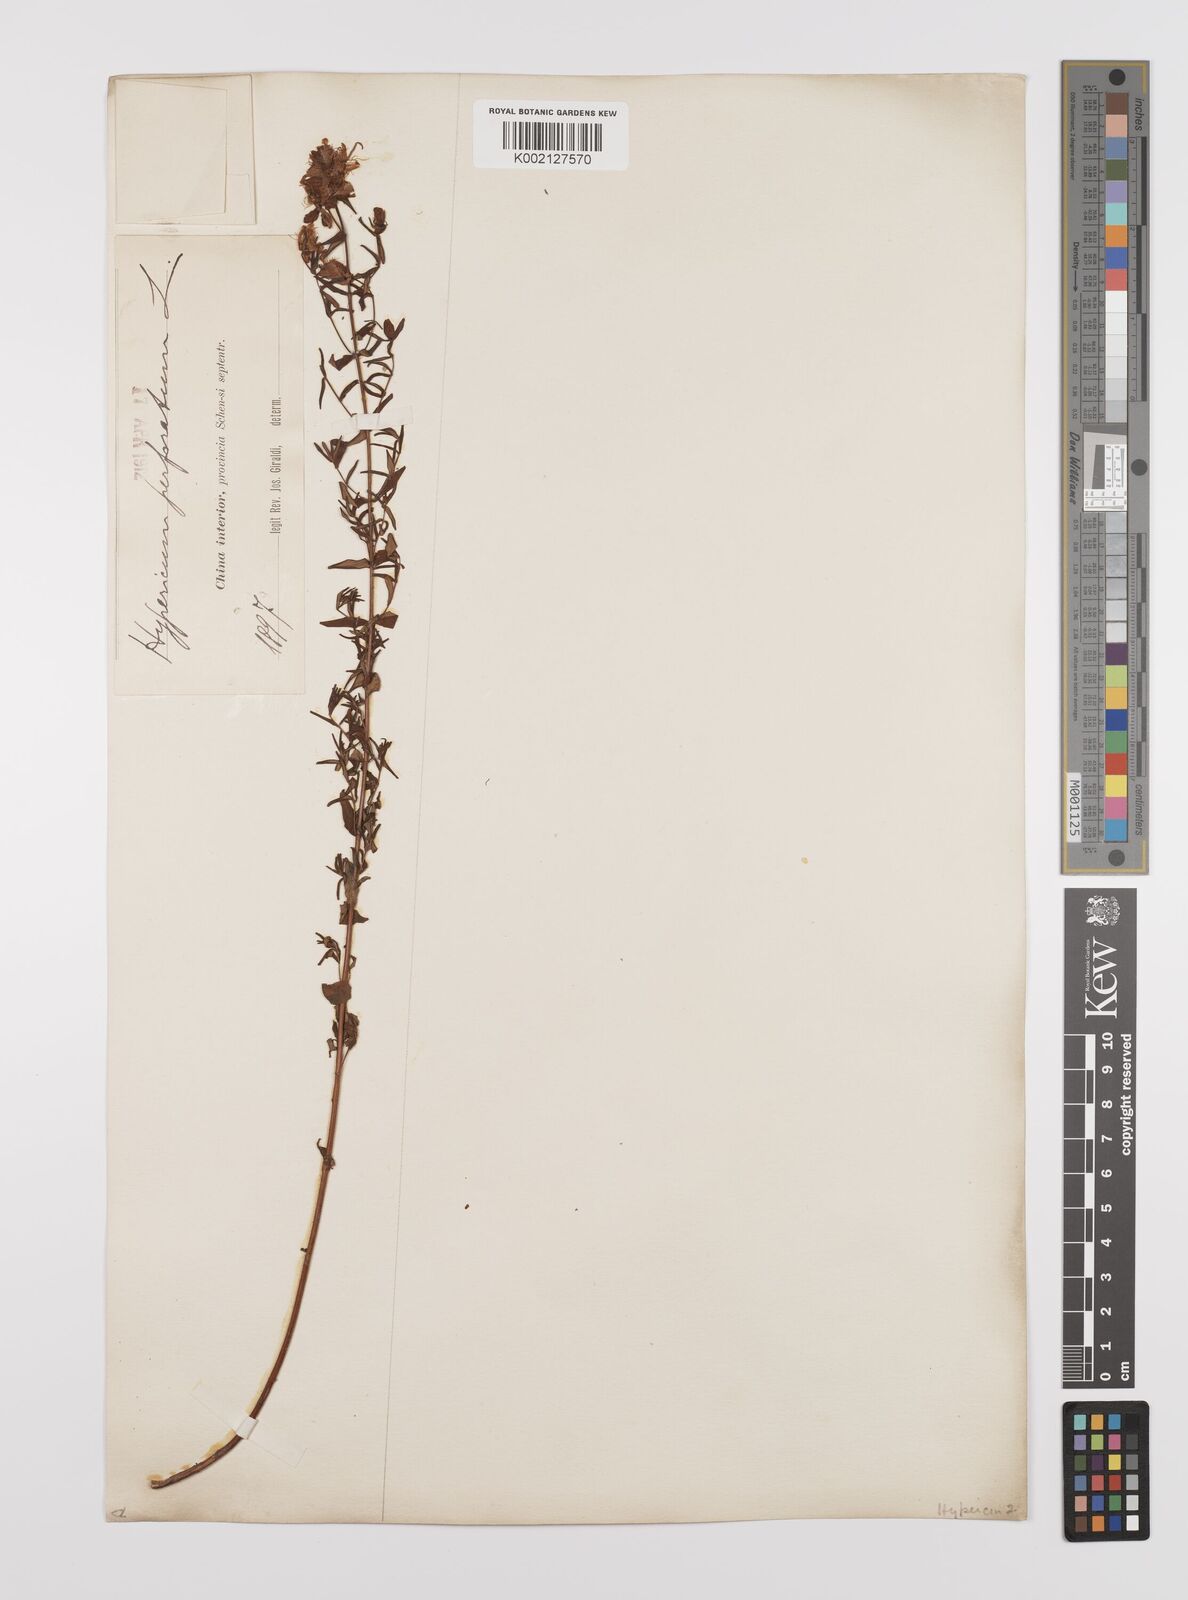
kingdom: Plantae
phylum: Tracheophyta
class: Magnoliopsida
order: Malpighiales
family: Hypericaceae
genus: Hypericum
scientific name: Hypericum perforatum
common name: Common st. johnswort
